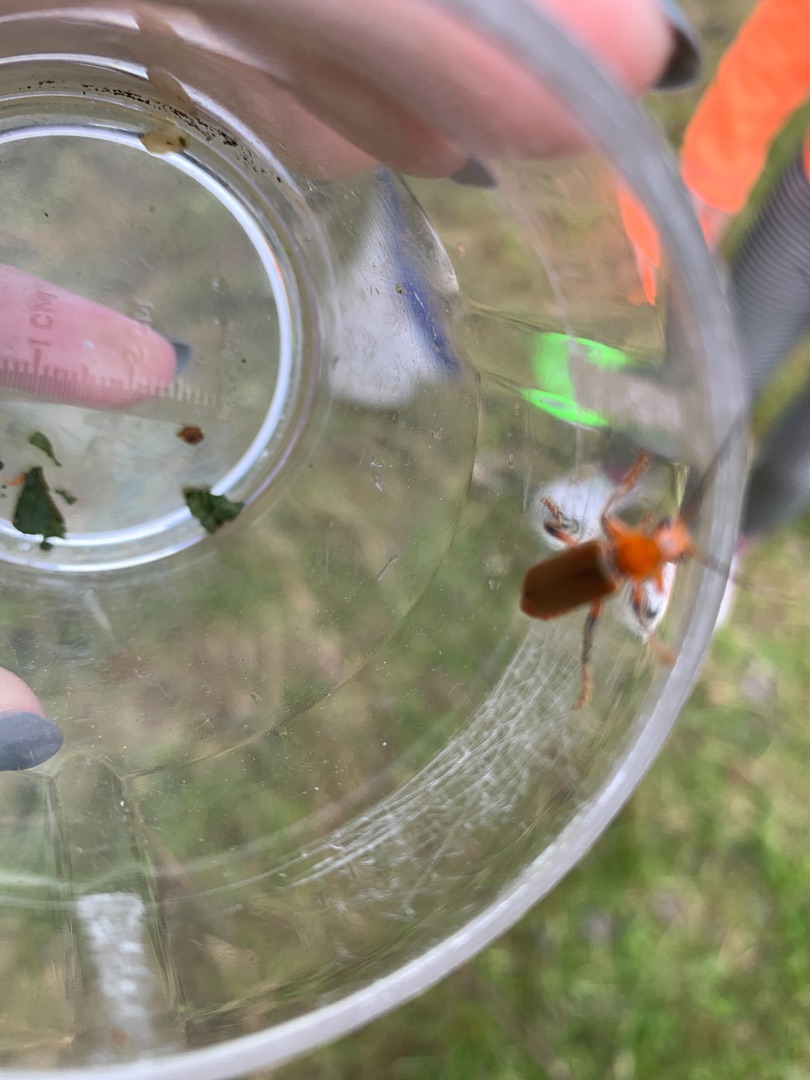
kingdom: Animalia
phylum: Arthropoda
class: Insecta
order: Coleoptera
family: Cantharidae
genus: Cantharis
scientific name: Cantharis livida
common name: Gul blødvinge
